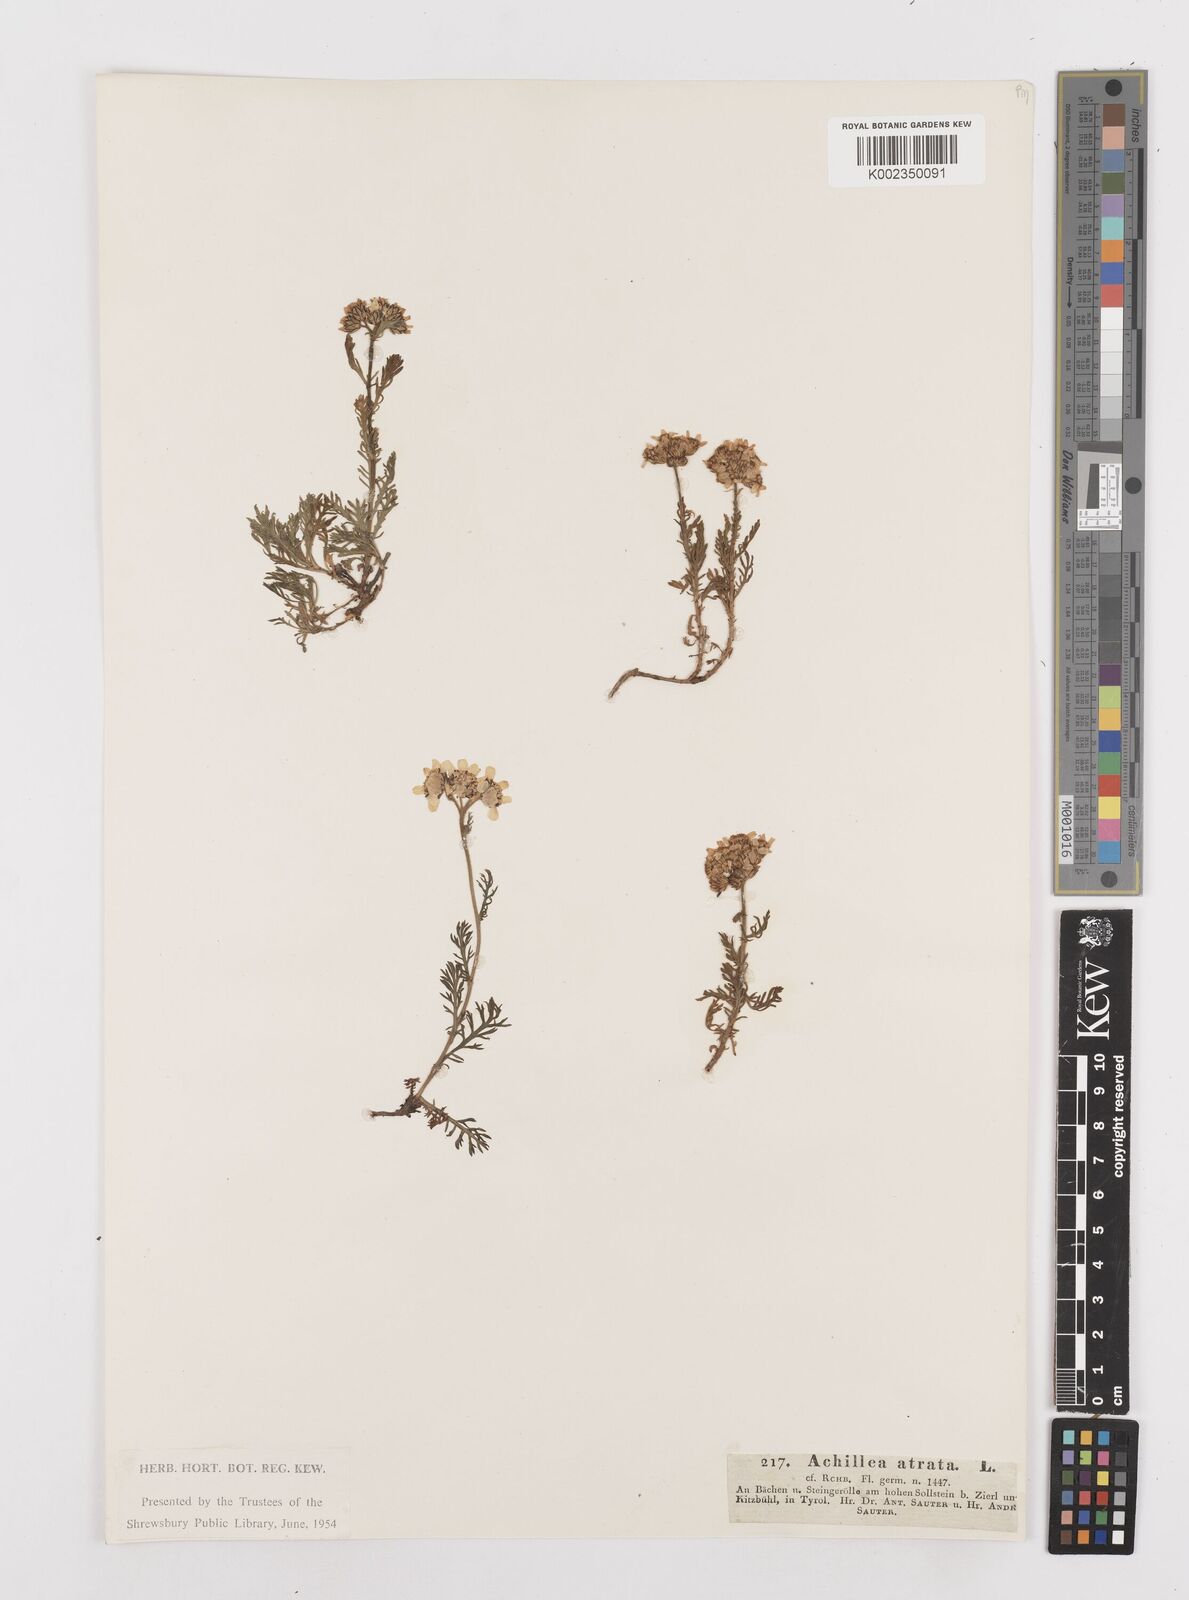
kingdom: Plantae
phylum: Tracheophyta
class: Magnoliopsida
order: Asterales
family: Asteraceae
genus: Achillea
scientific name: Achillea atrata
